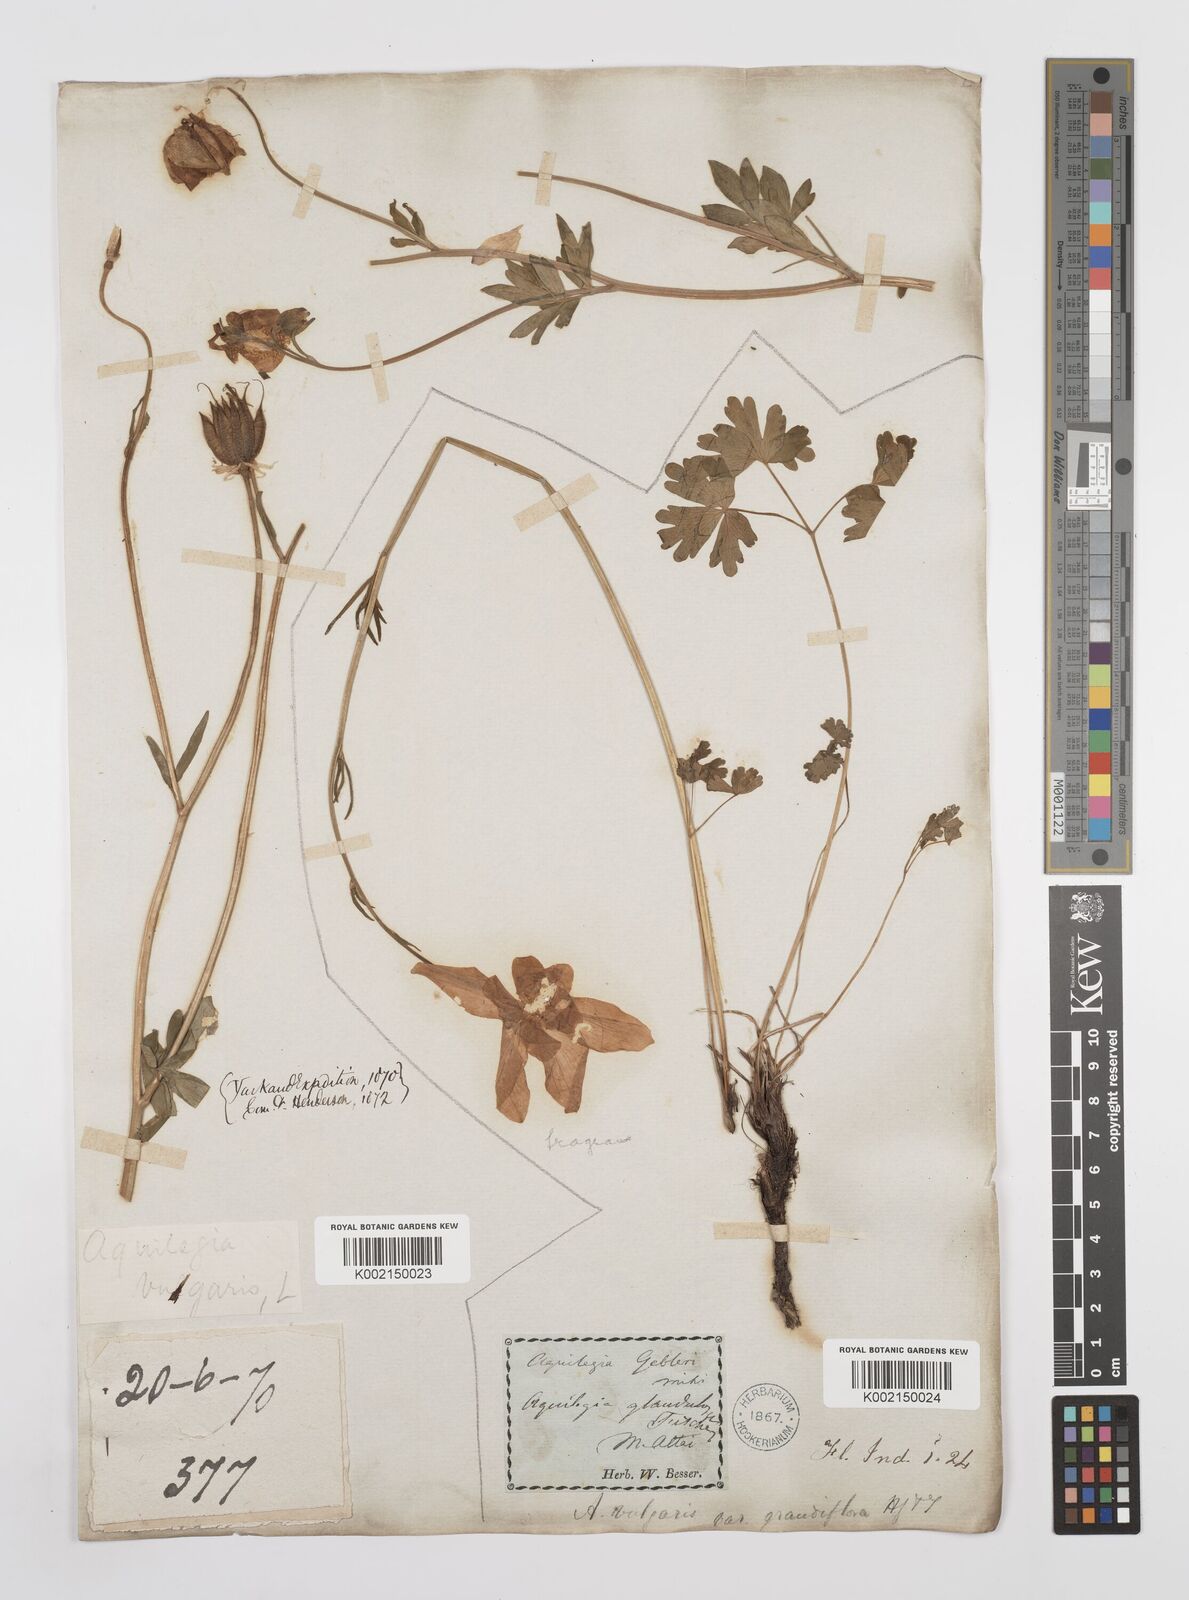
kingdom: Plantae
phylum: Tracheophyta
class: Magnoliopsida
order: Ranunculales
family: Ranunculaceae
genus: Aquilegia
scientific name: Aquilegia fragrans
